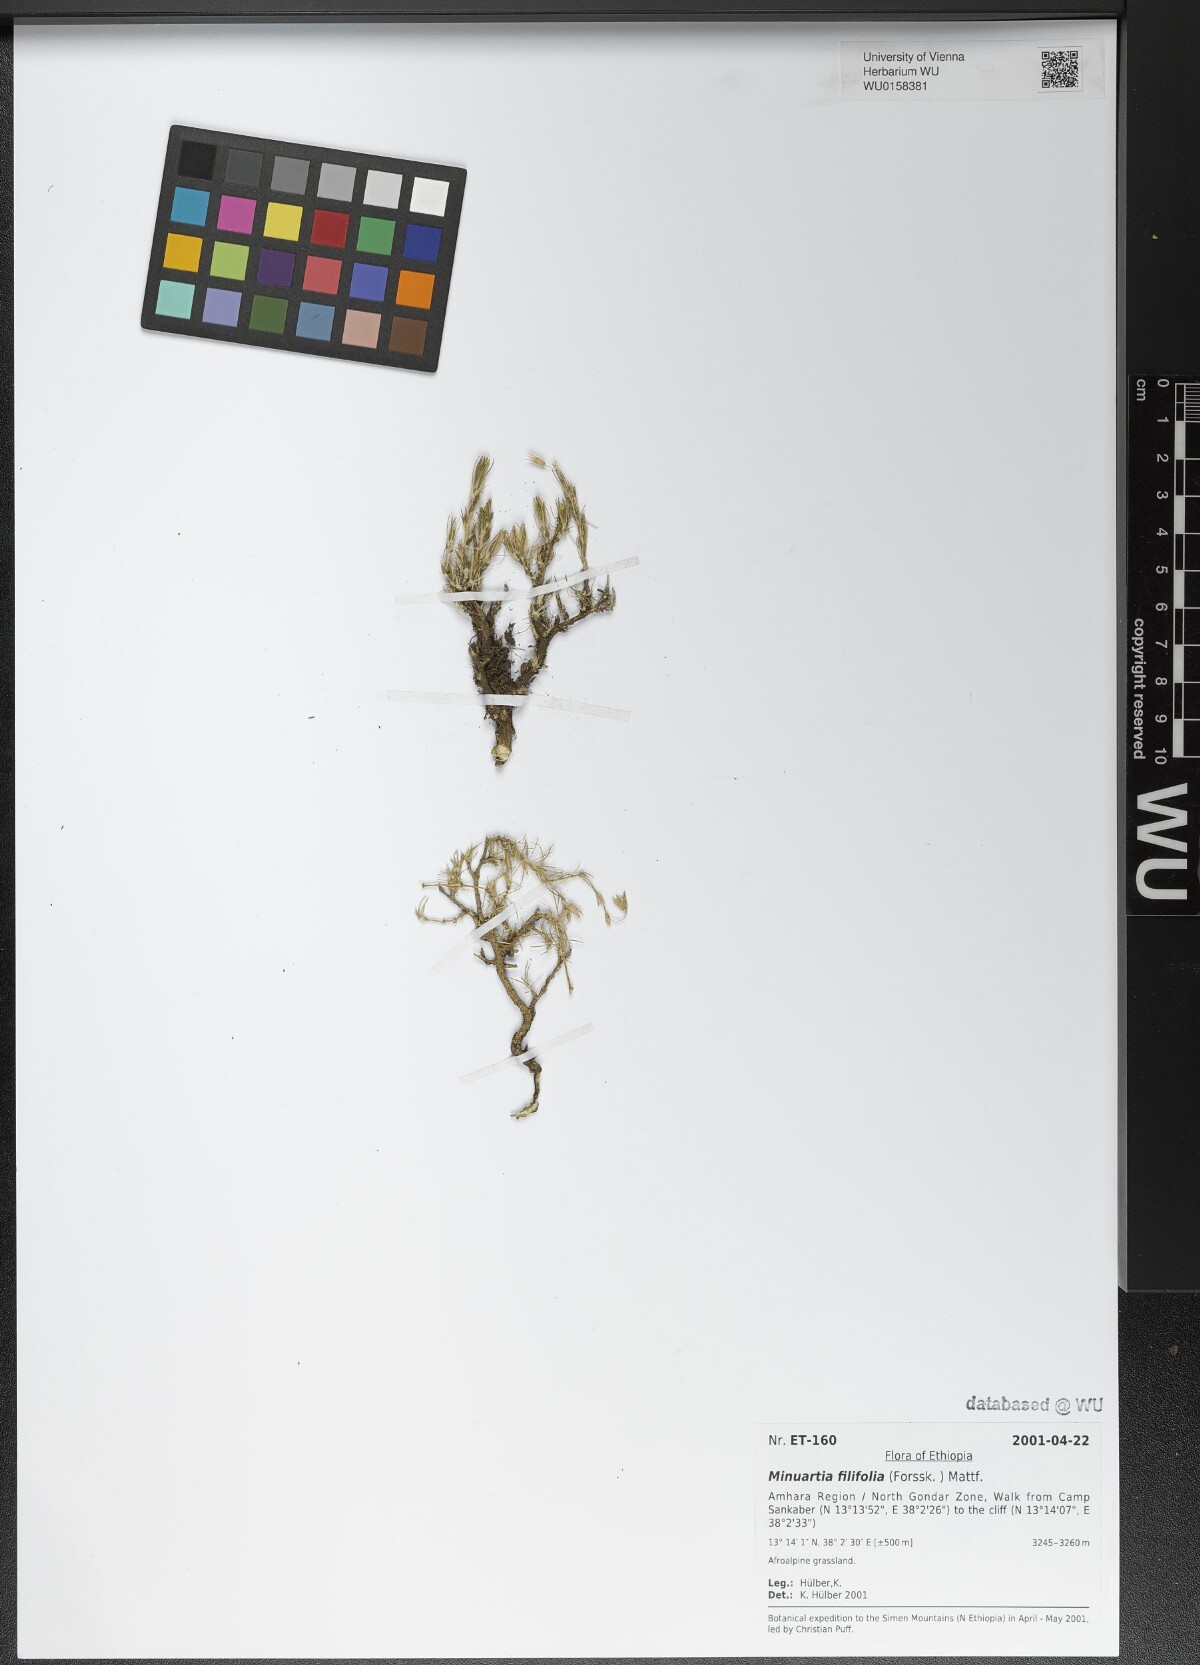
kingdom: Plantae
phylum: Tracheophyta
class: Magnoliopsida
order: Caryophyllales
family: Caryophyllaceae
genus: Minuartia
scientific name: Minuartia filifolia
